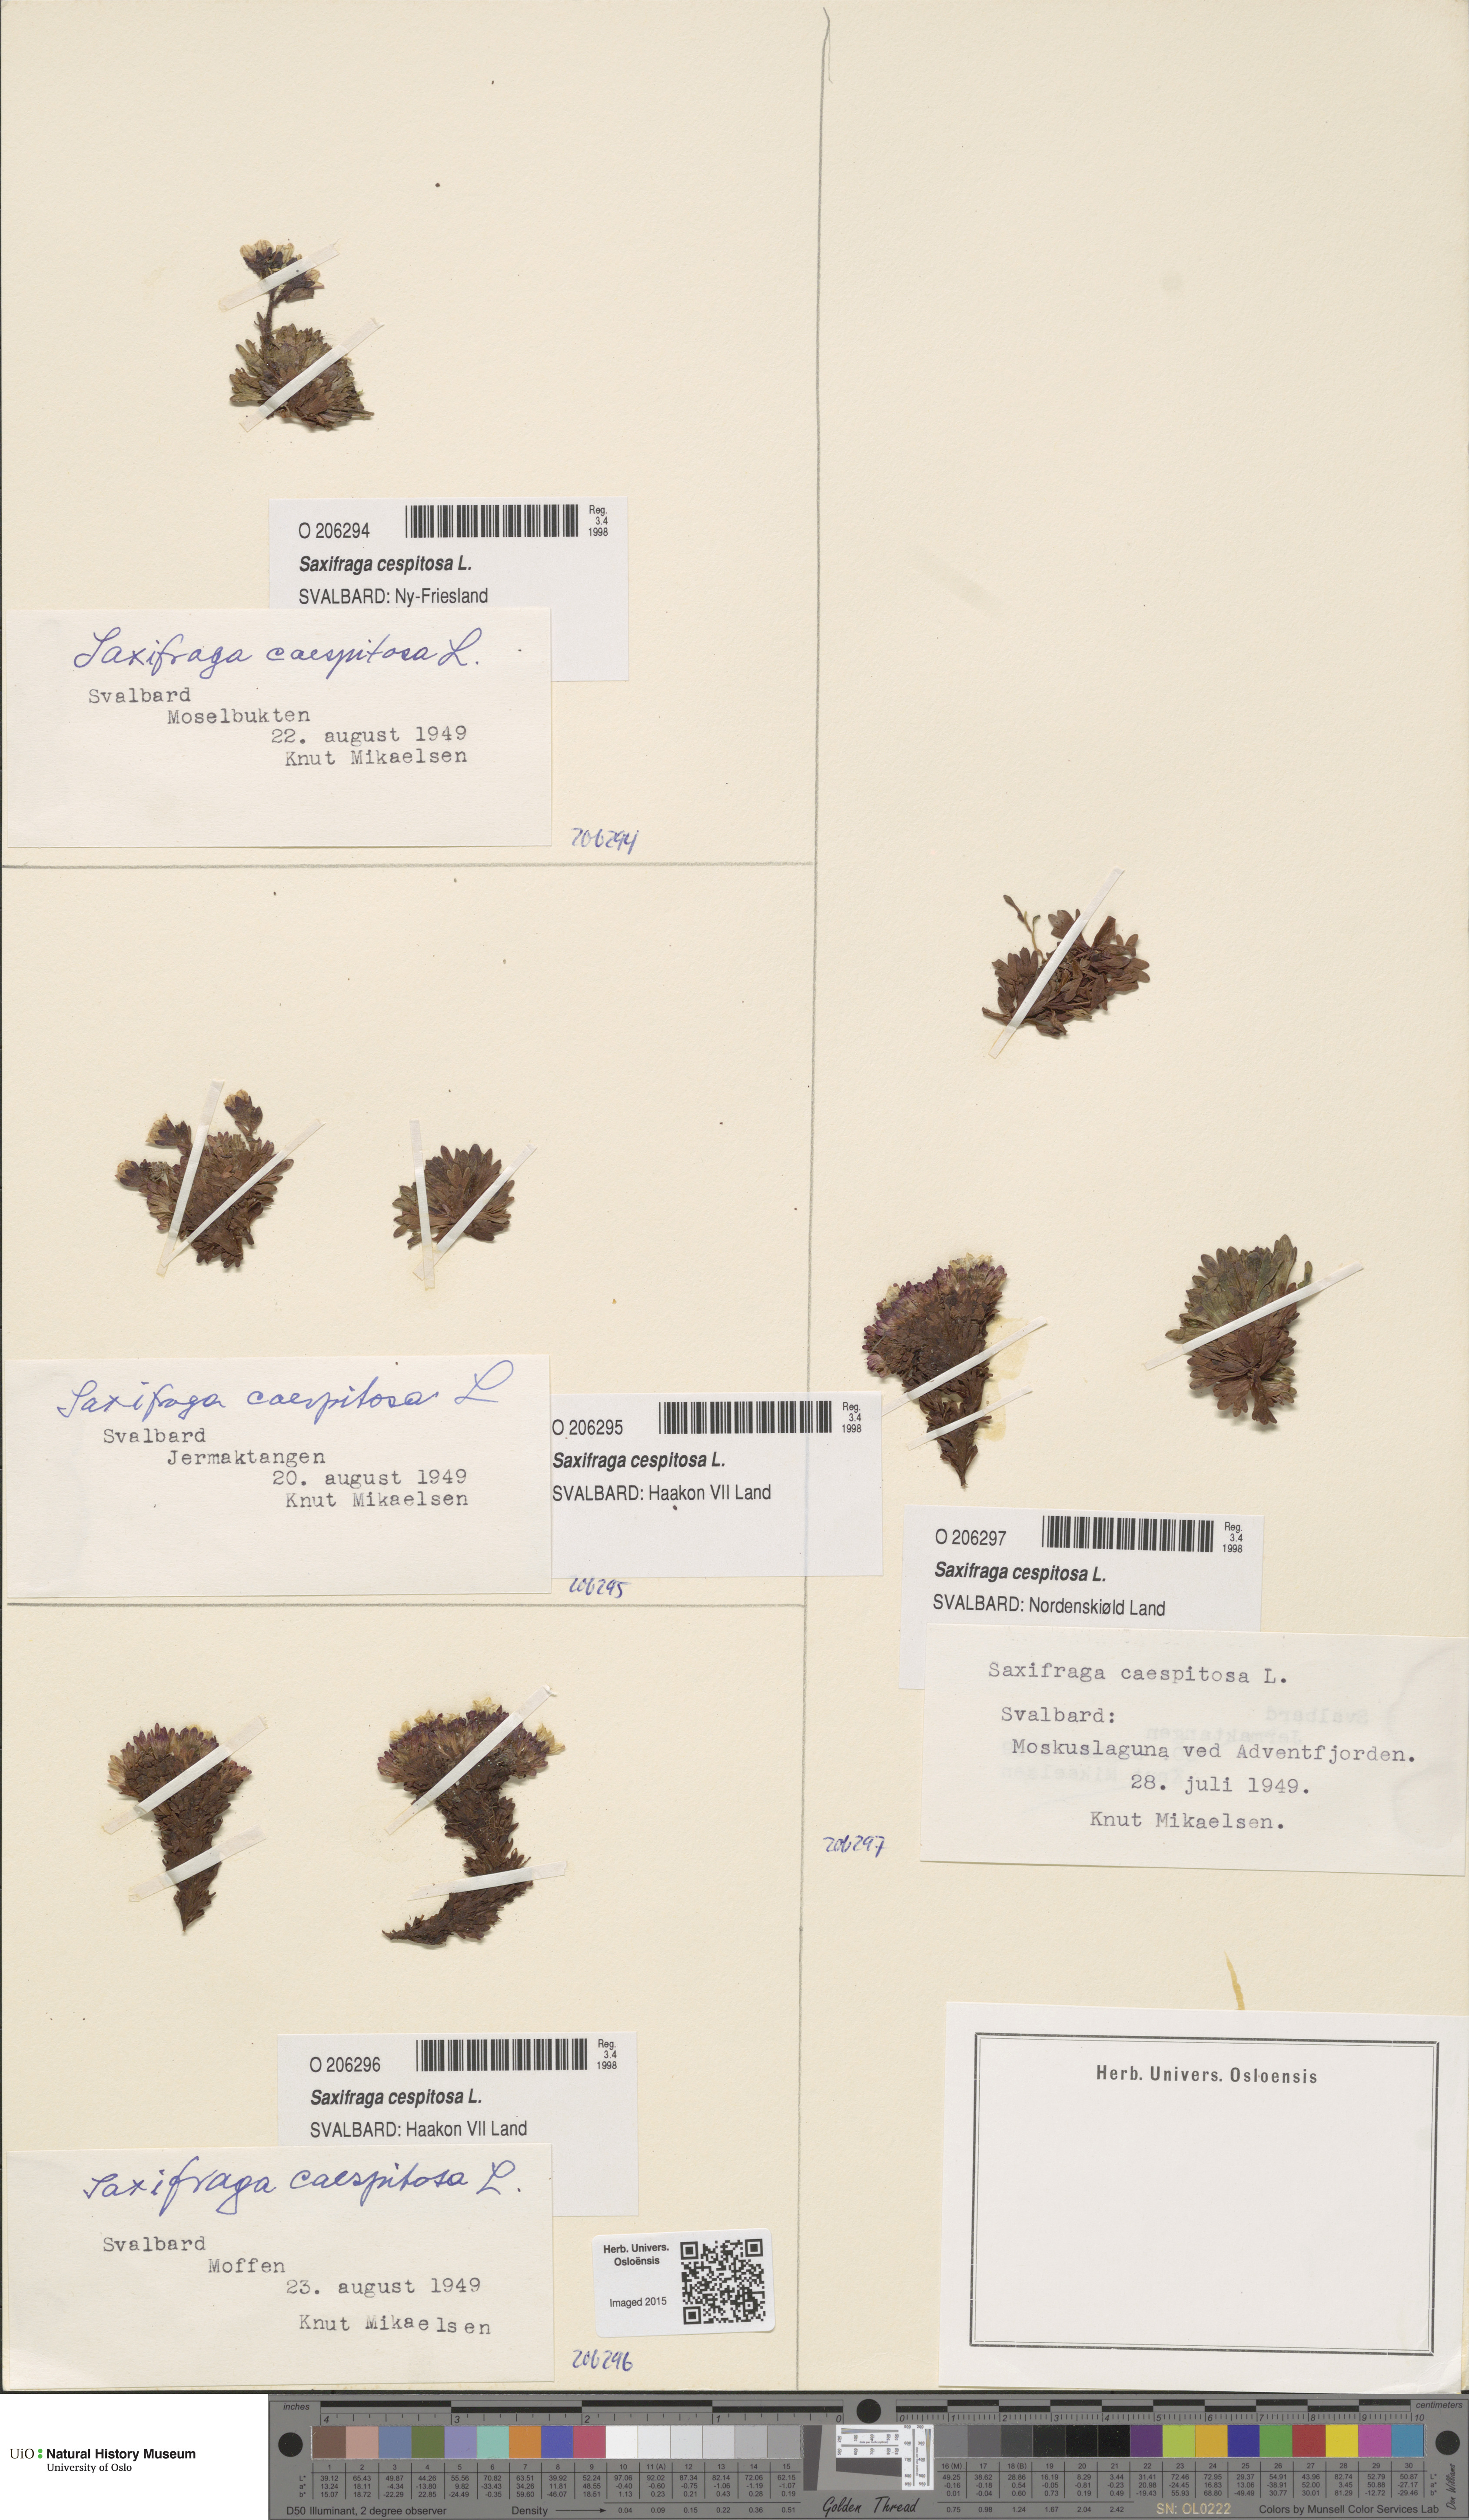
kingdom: Plantae
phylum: Tracheophyta
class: Magnoliopsida
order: Saxifragales
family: Saxifragaceae
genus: Saxifraga
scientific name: Saxifraga cespitosa
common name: Tufted saxifrage
